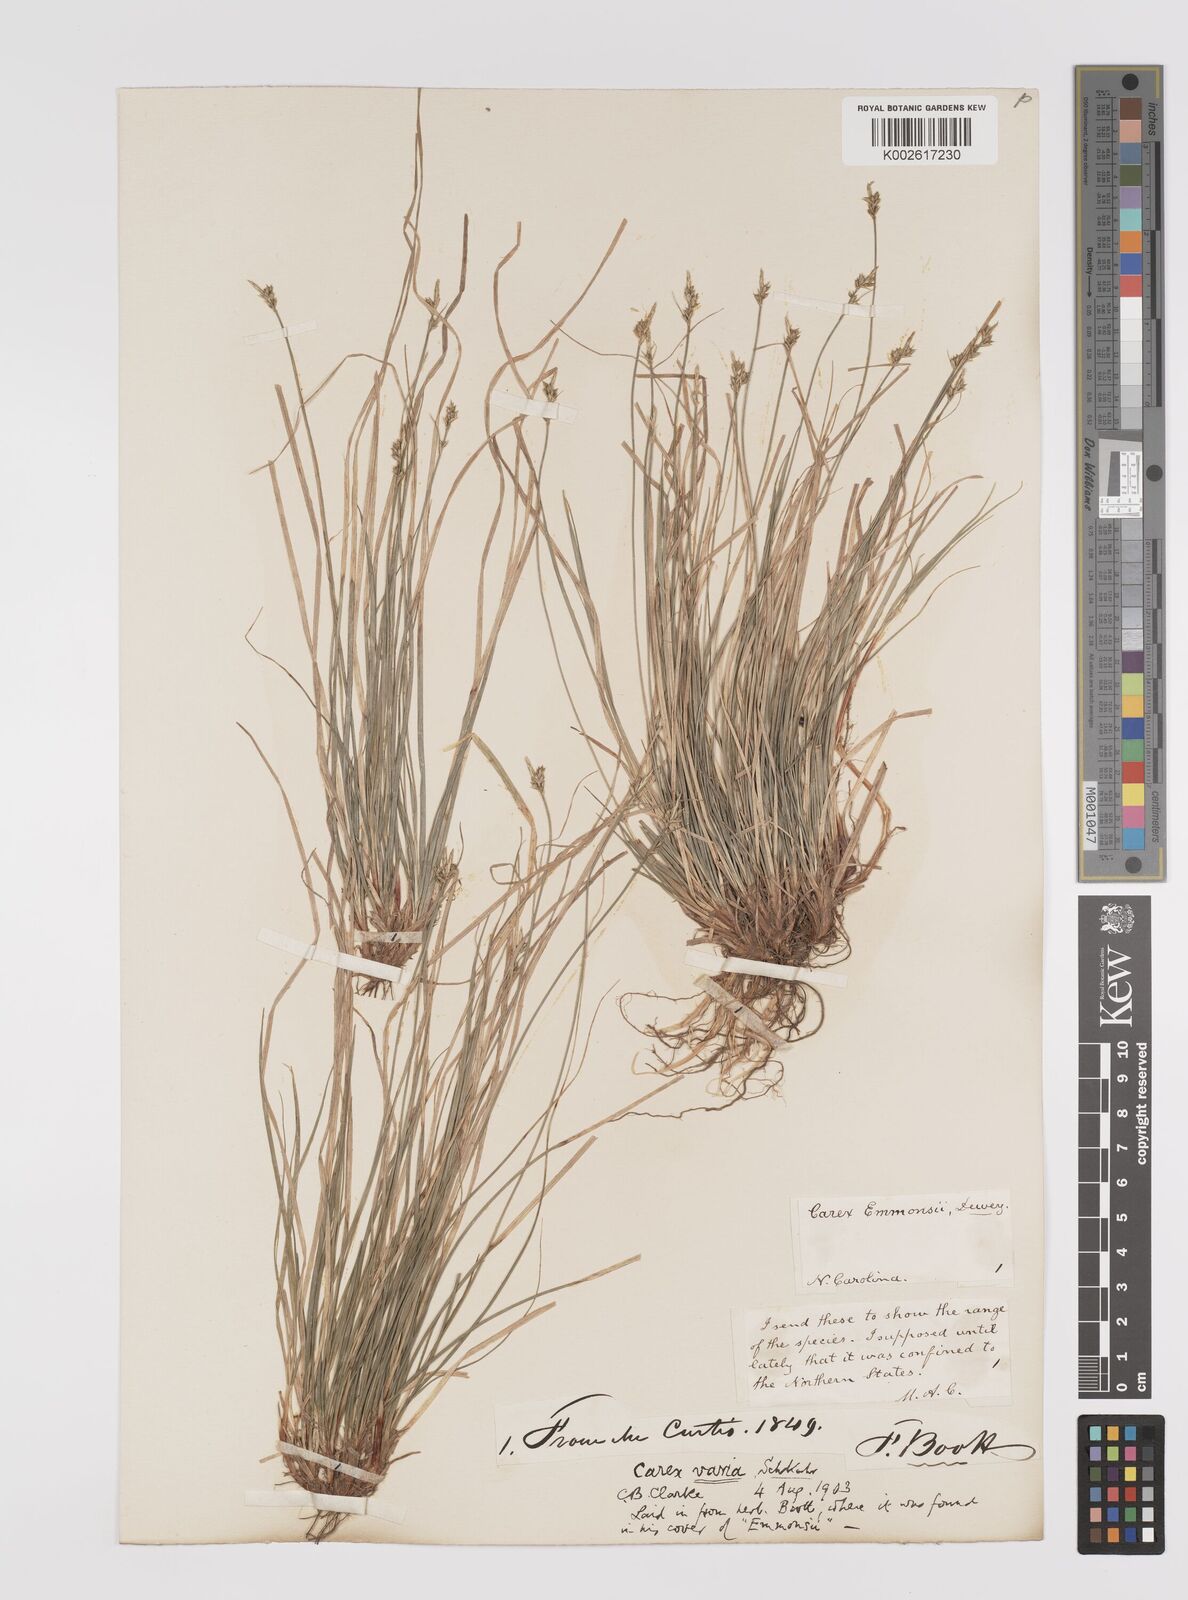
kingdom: Plantae
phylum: Tracheophyta
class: Liliopsida
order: Poales
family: Cyperaceae
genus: Carex
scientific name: Carex albicans
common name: Bellow-beaked sedge
